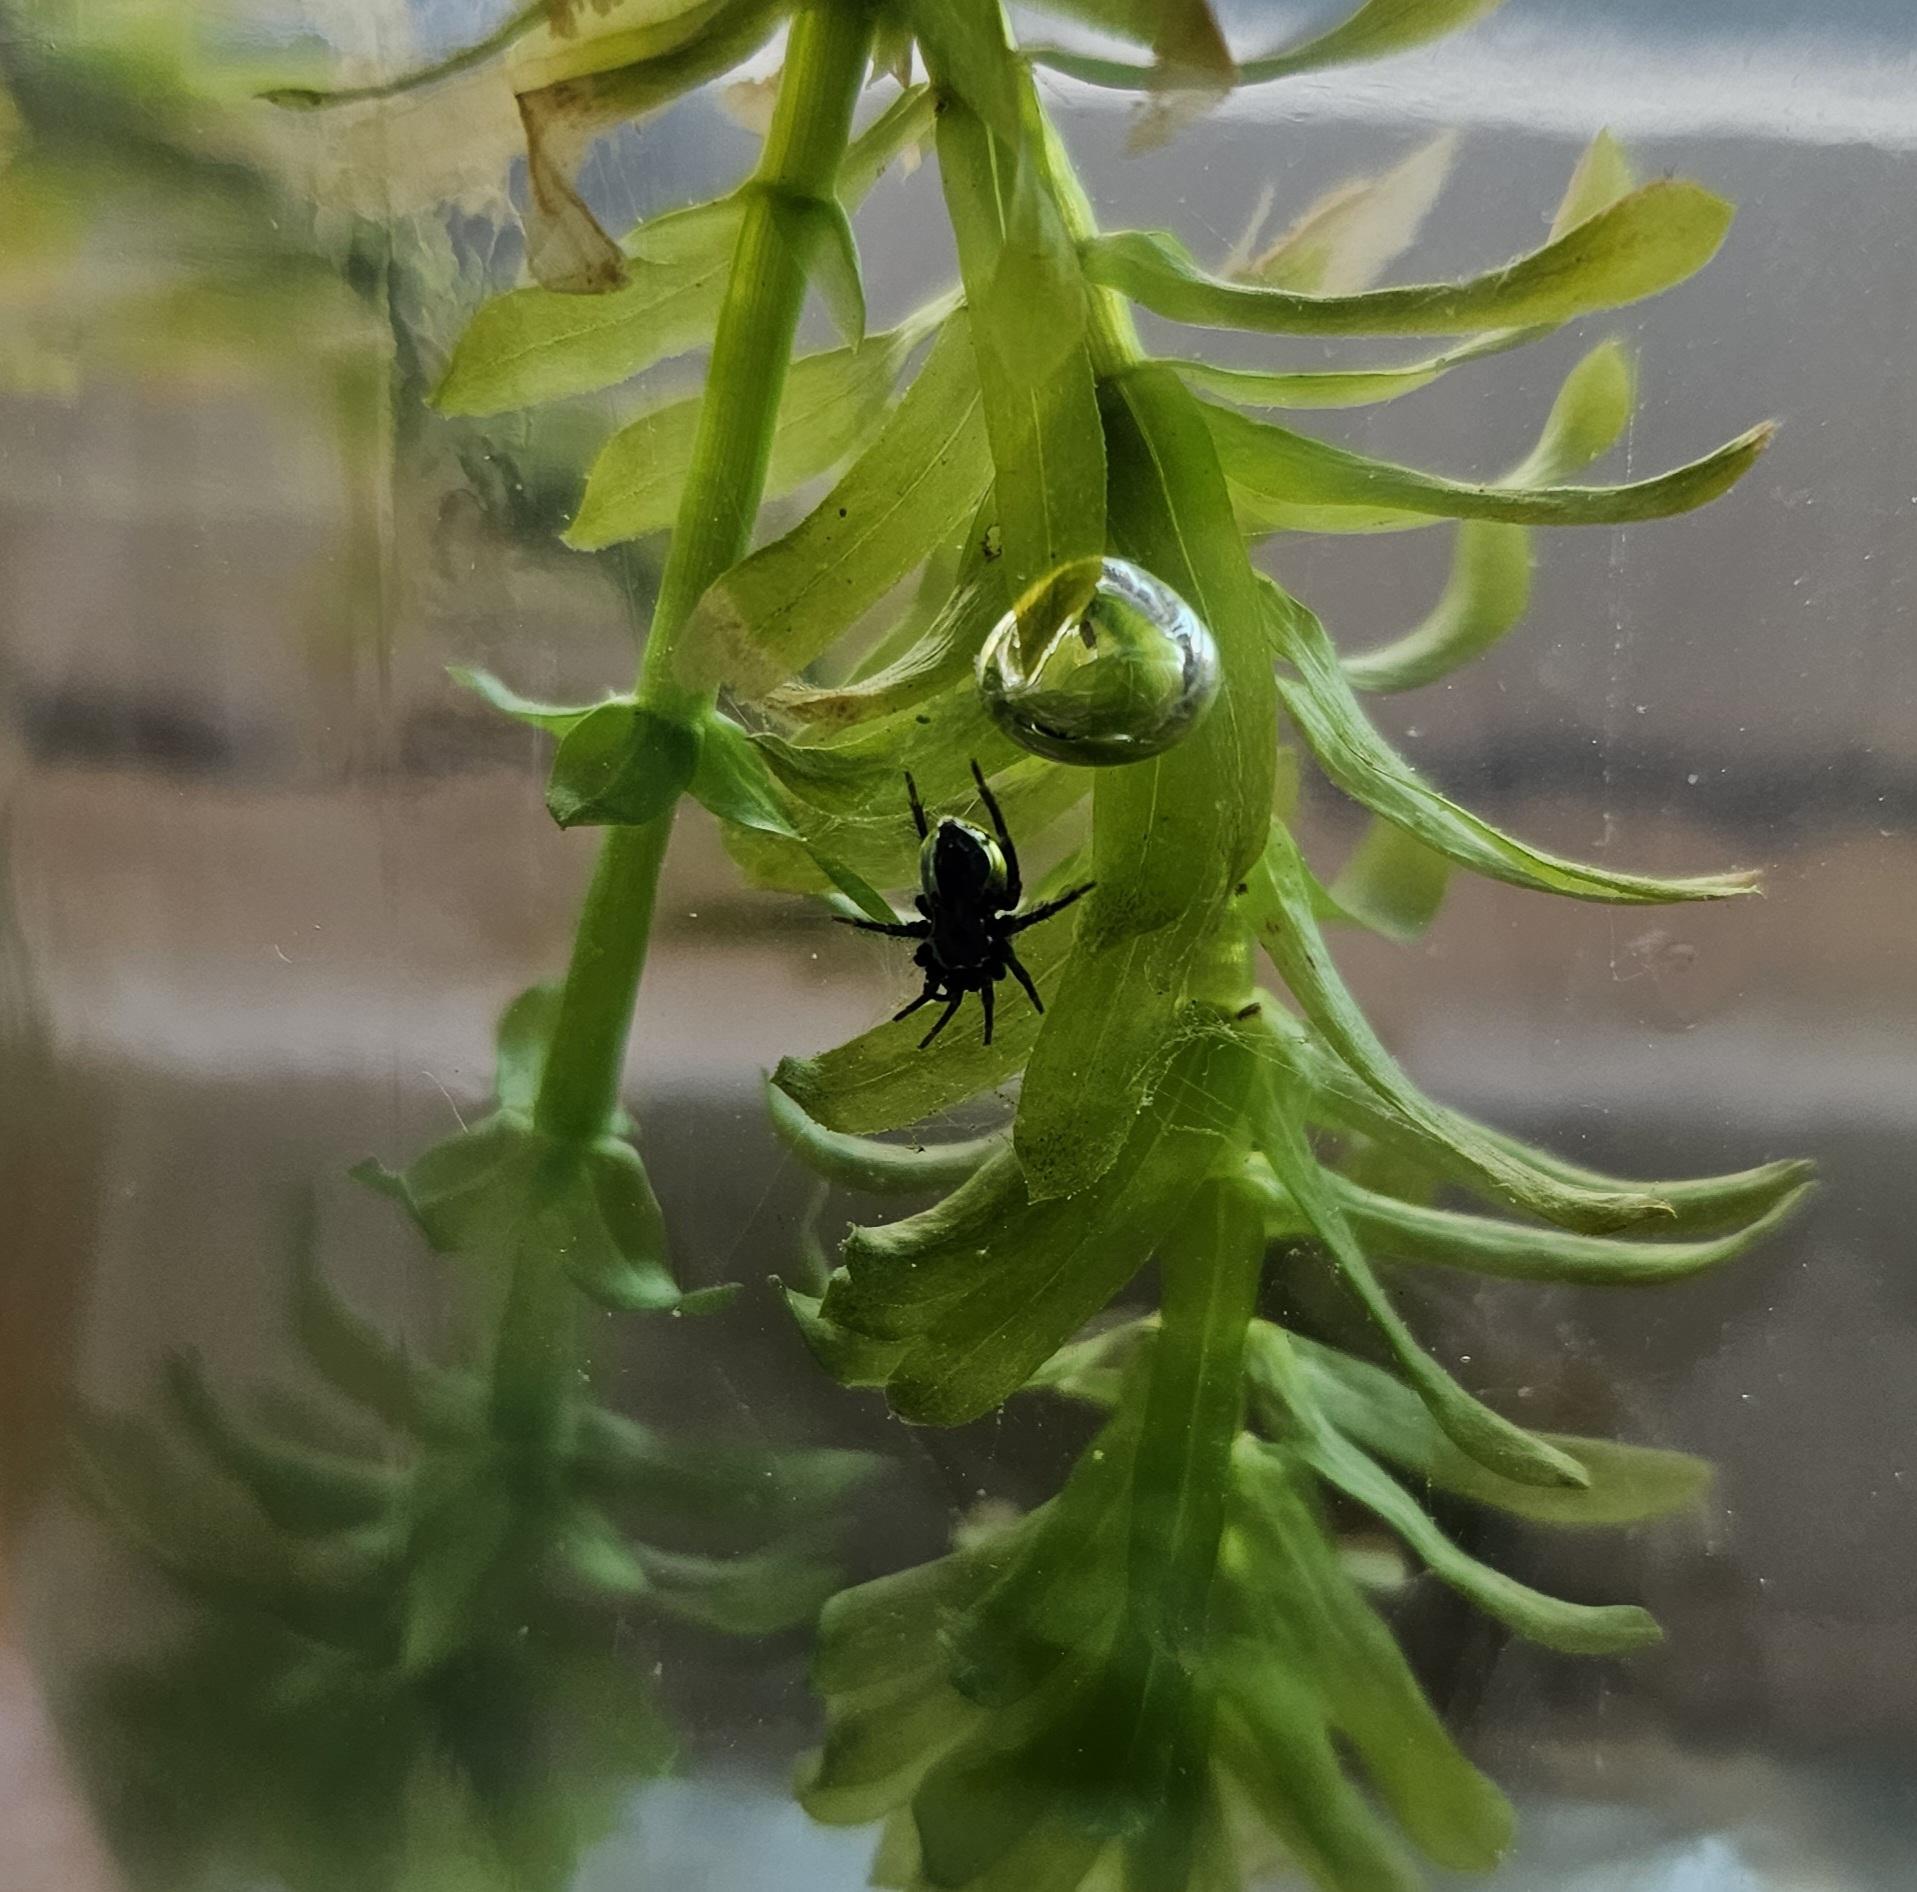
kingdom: Animalia
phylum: Arthropoda
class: Arachnida
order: Araneae
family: Dictynidae
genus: Argyroneta
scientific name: Argyroneta aquatica
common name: Vandedderkop
